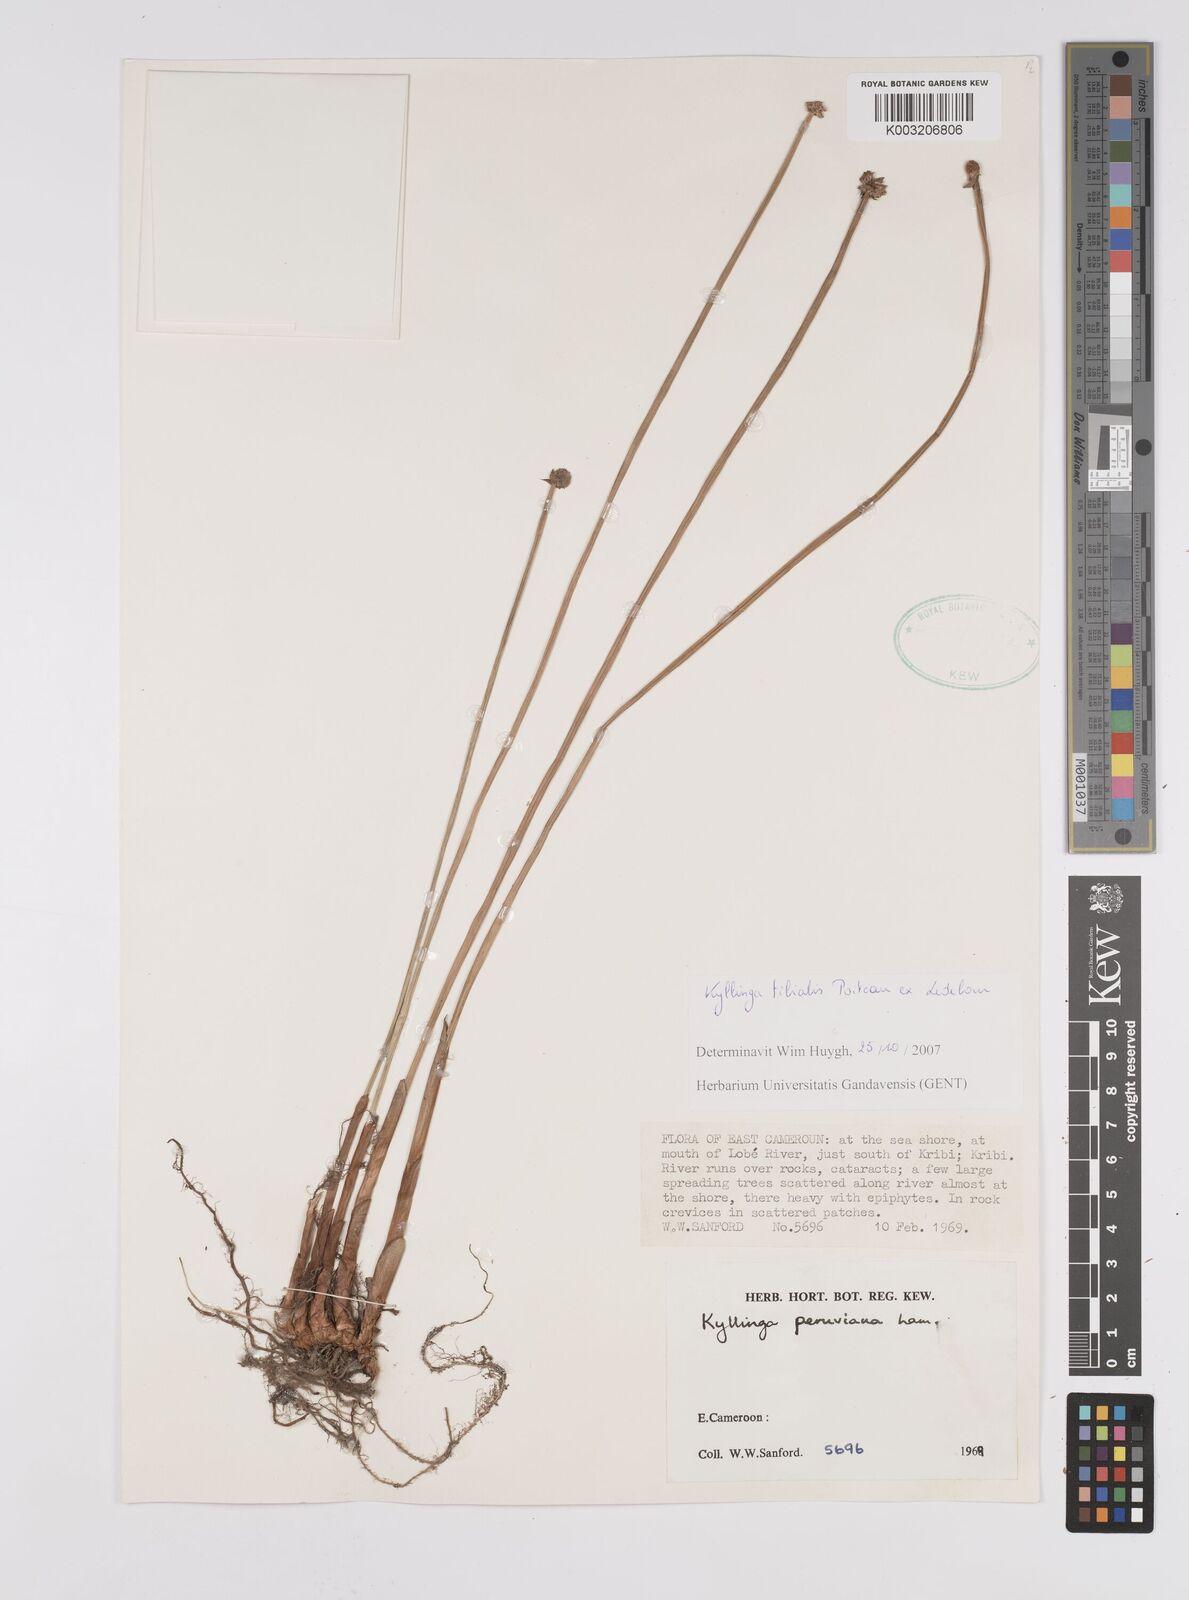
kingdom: Plantae
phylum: Tracheophyta
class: Liliopsida
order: Poales
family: Cyperaceae
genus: Cyperus
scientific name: Cyperus
